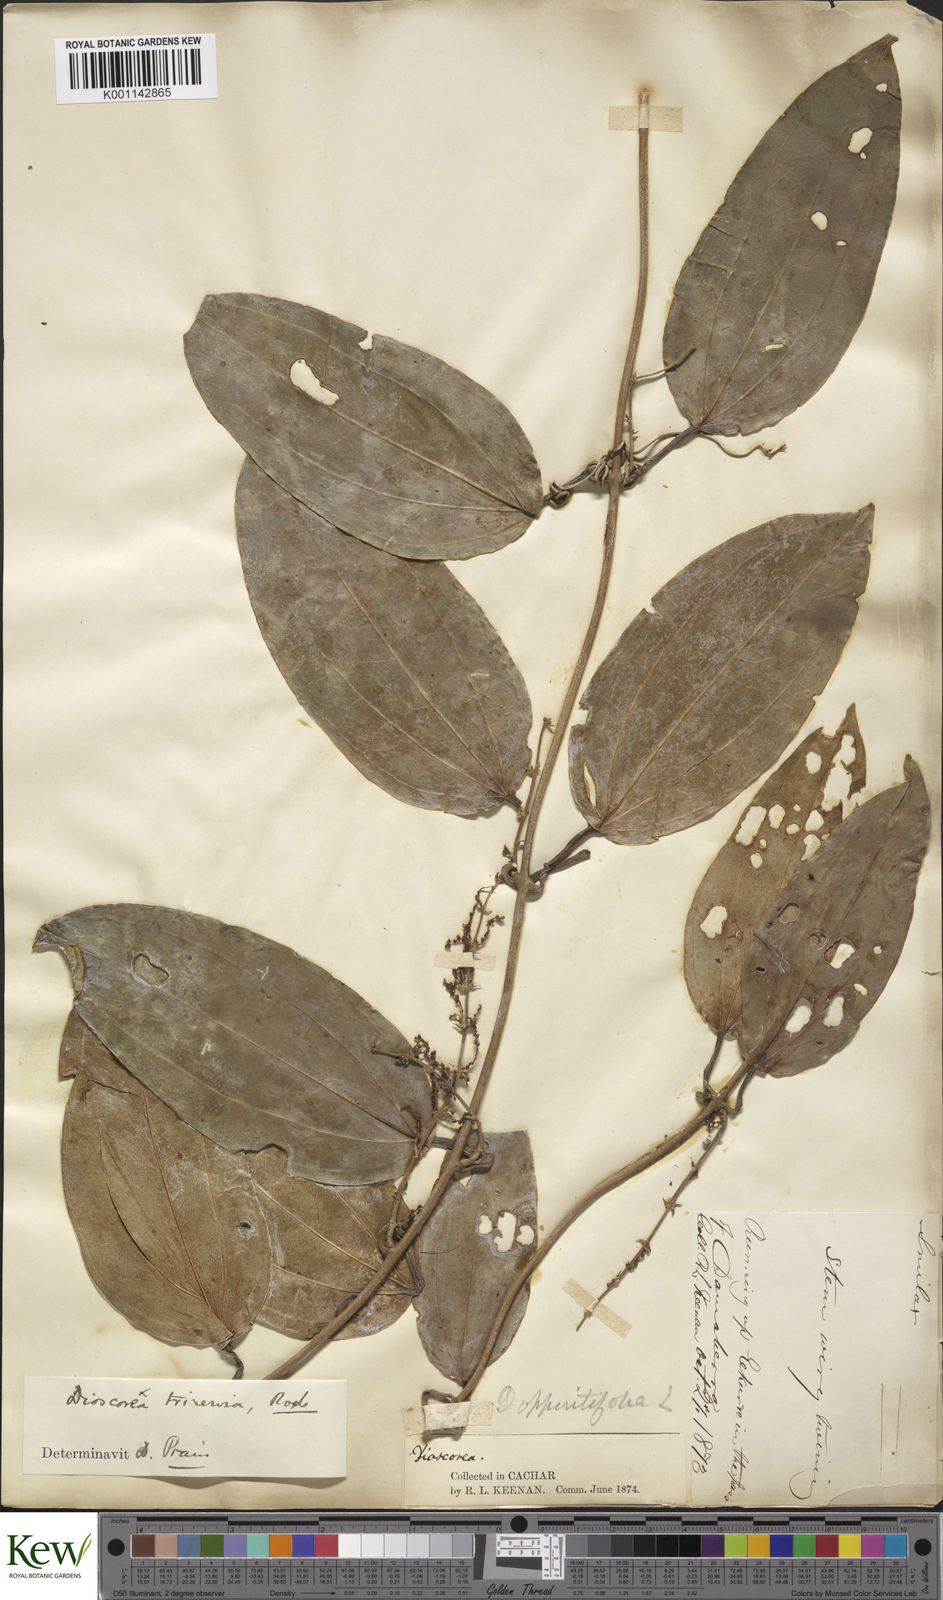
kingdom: Plantae
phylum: Tracheophyta
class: Liliopsida
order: Dioscoreales
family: Dioscoreaceae
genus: Dioscorea
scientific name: Dioscorea oppositifolia
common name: Chinese yam
